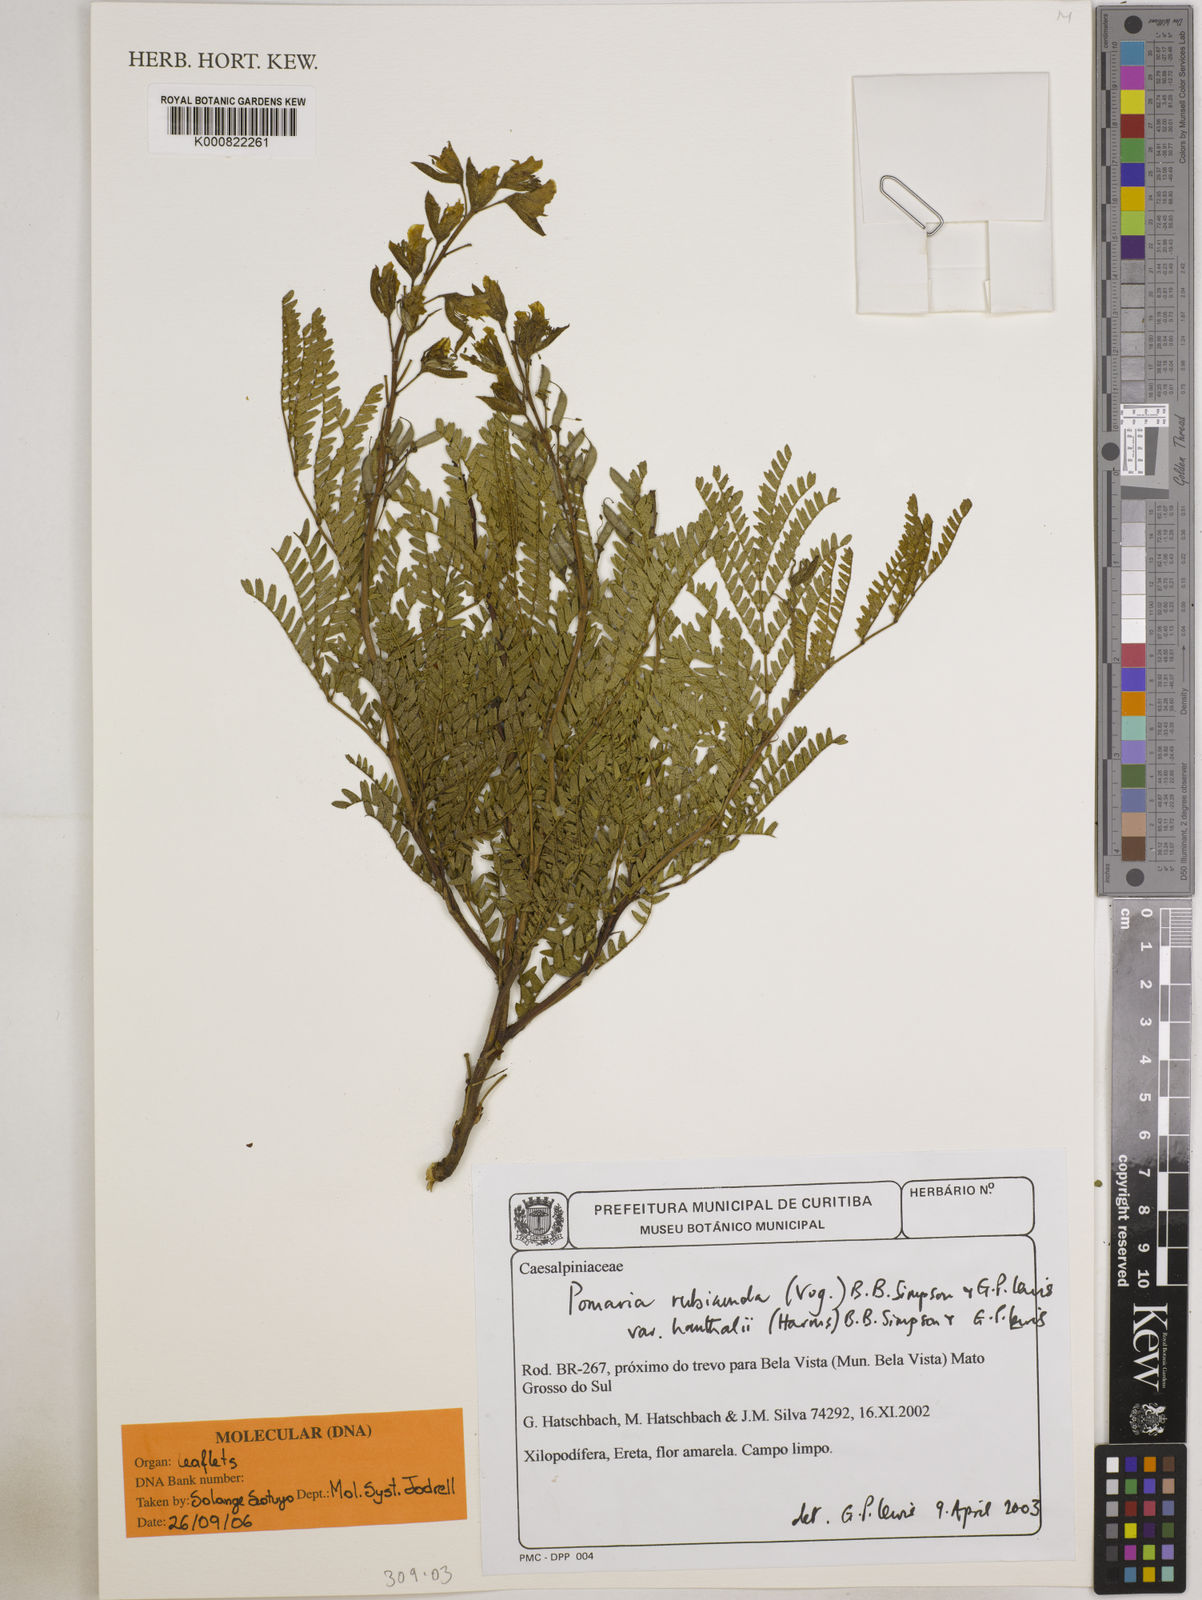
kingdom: Plantae
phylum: Tracheophyta
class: Magnoliopsida
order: Fabales
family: Fabaceae
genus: Pomaria
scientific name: Pomaria rubicunda
